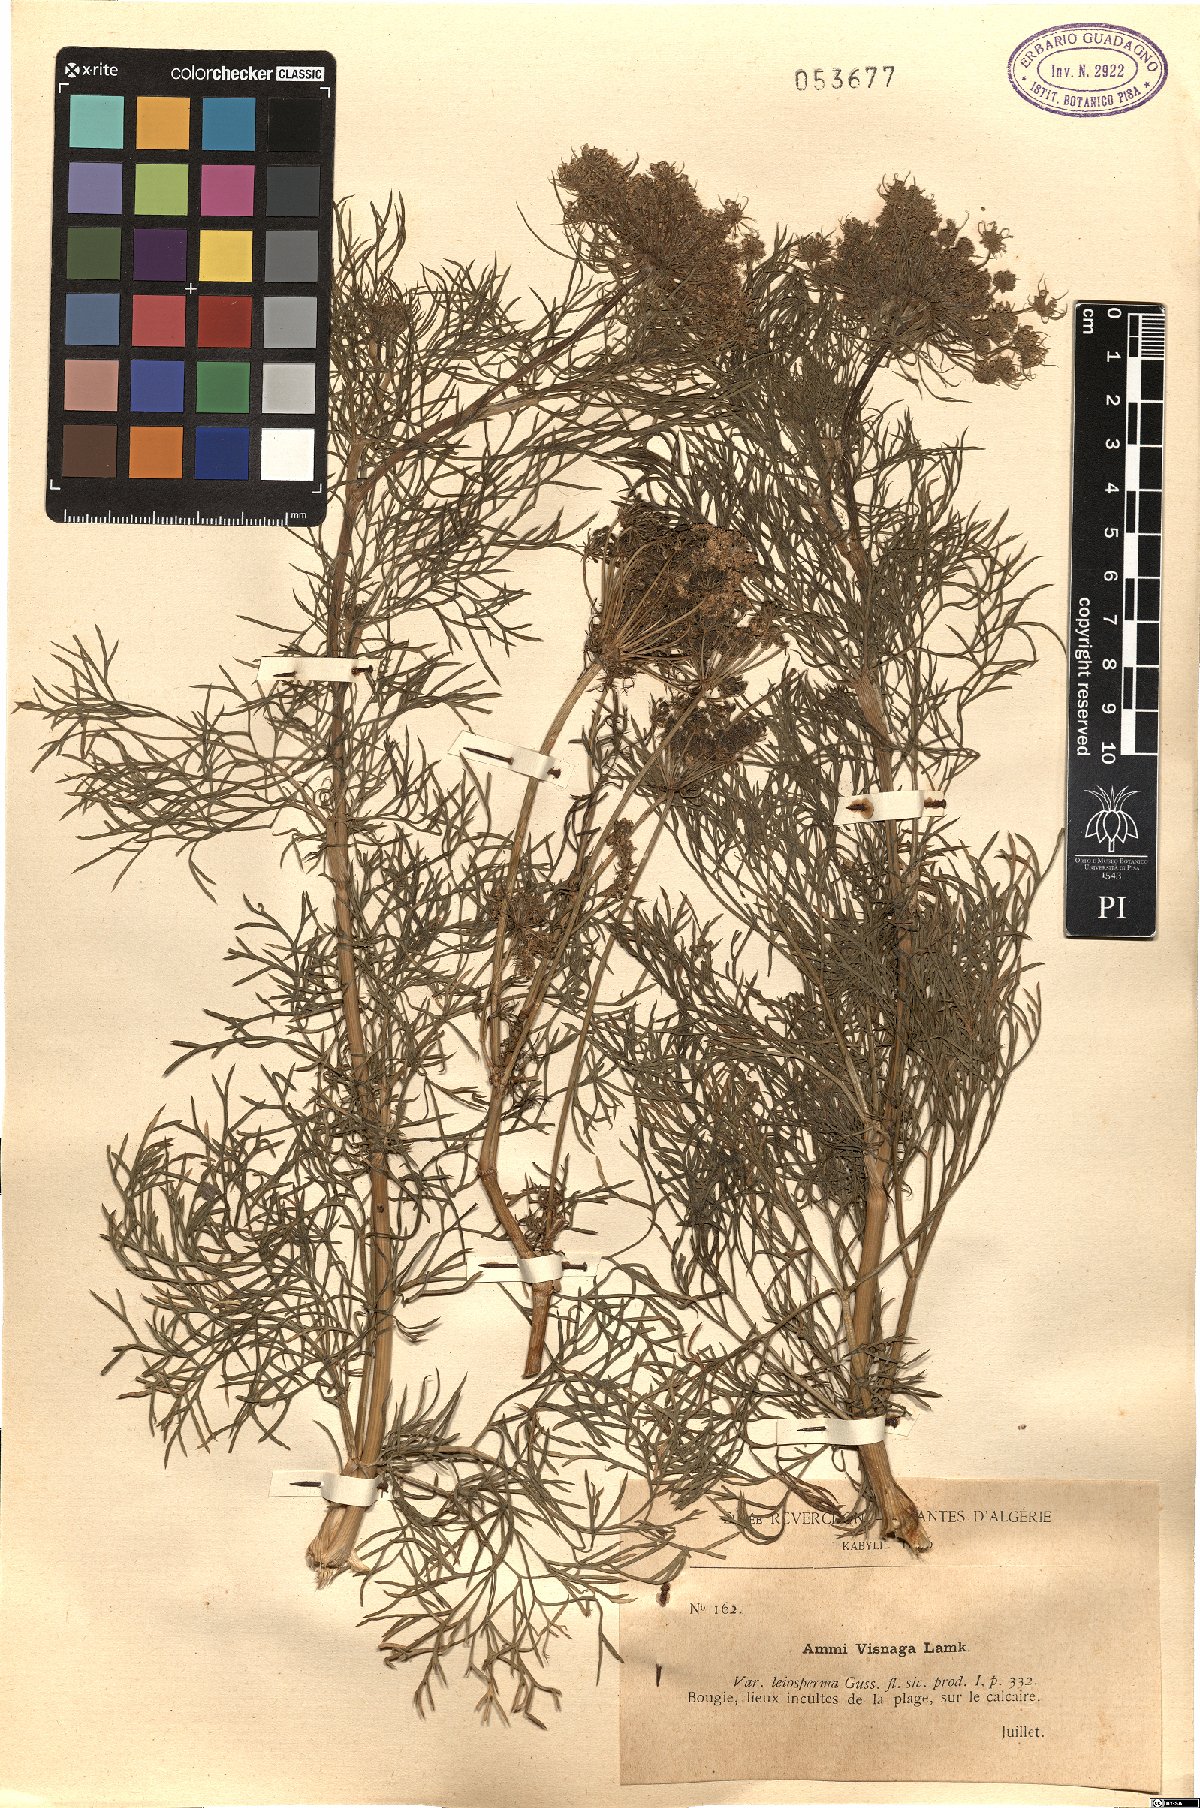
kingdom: Plantae
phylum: Tracheophyta
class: Magnoliopsida
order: Apiales
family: Apiaceae
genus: Visnaga
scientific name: Visnaga daucoides
